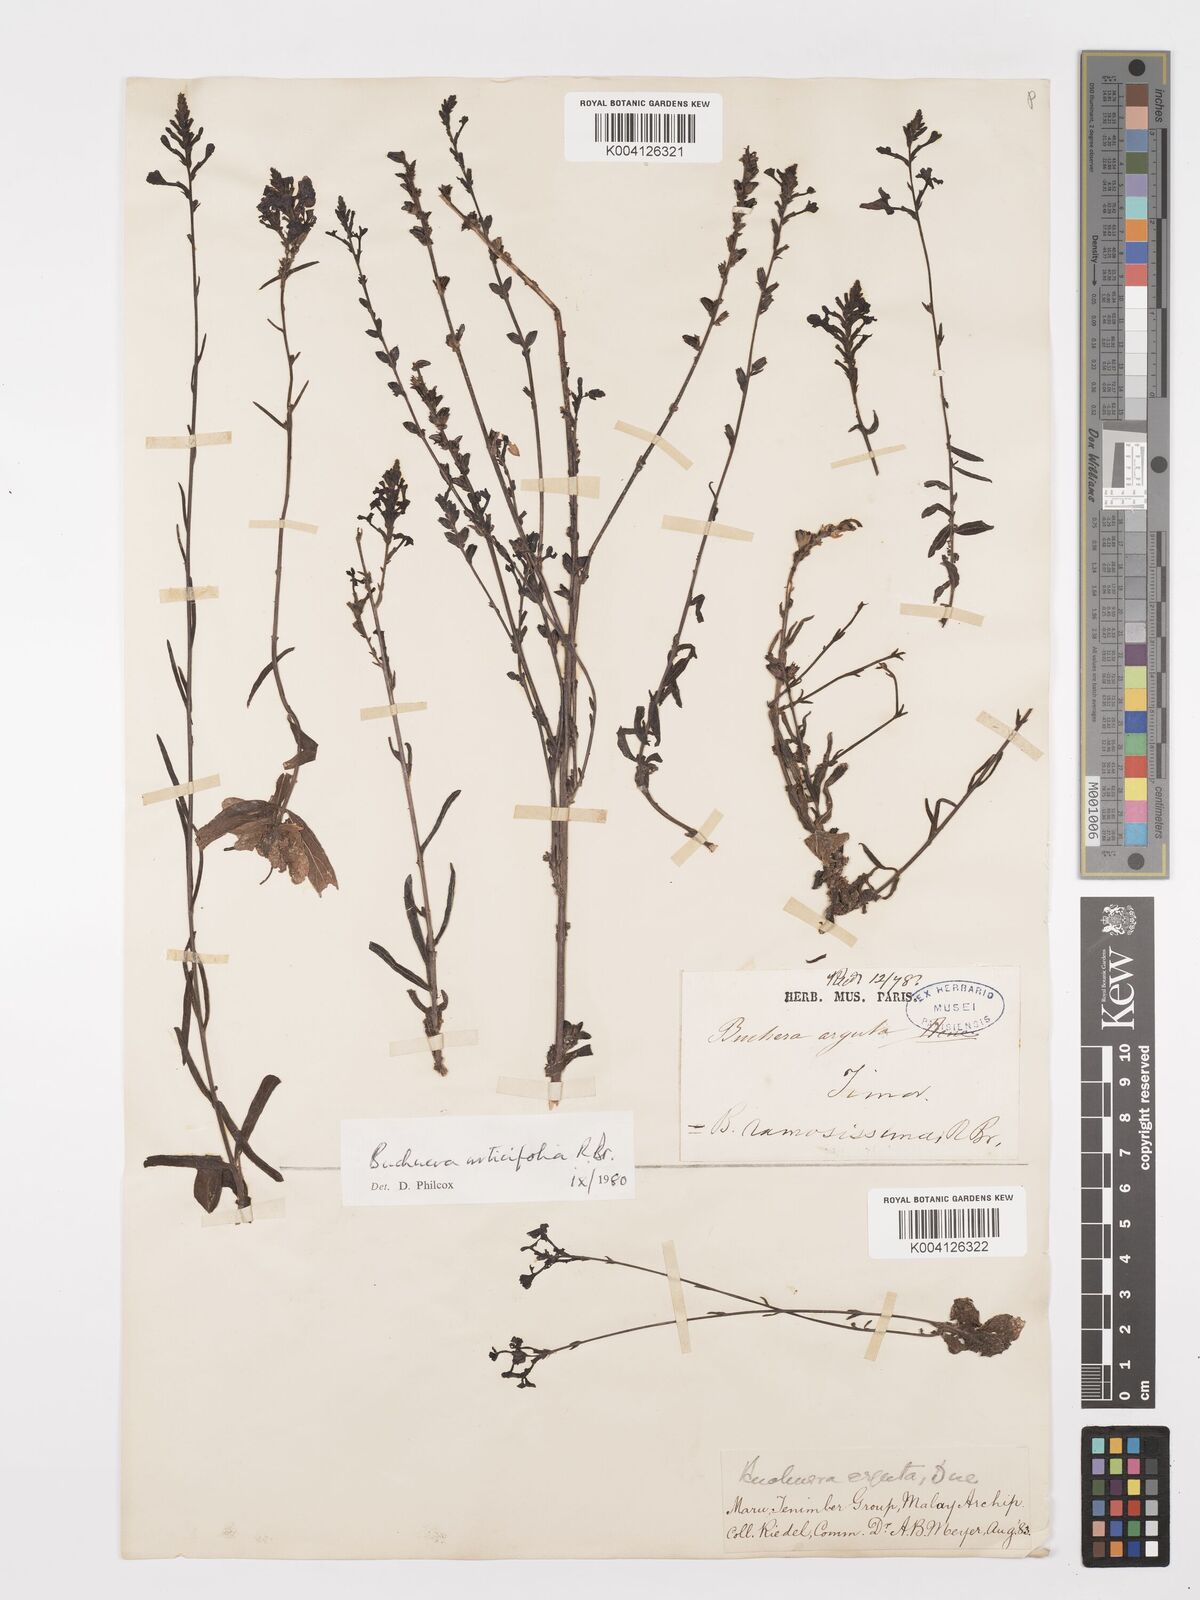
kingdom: Plantae
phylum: Tracheophyta
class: Magnoliopsida
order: Lamiales
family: Orobanchaceae
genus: Buchnera
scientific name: Buchnera urticifolia
